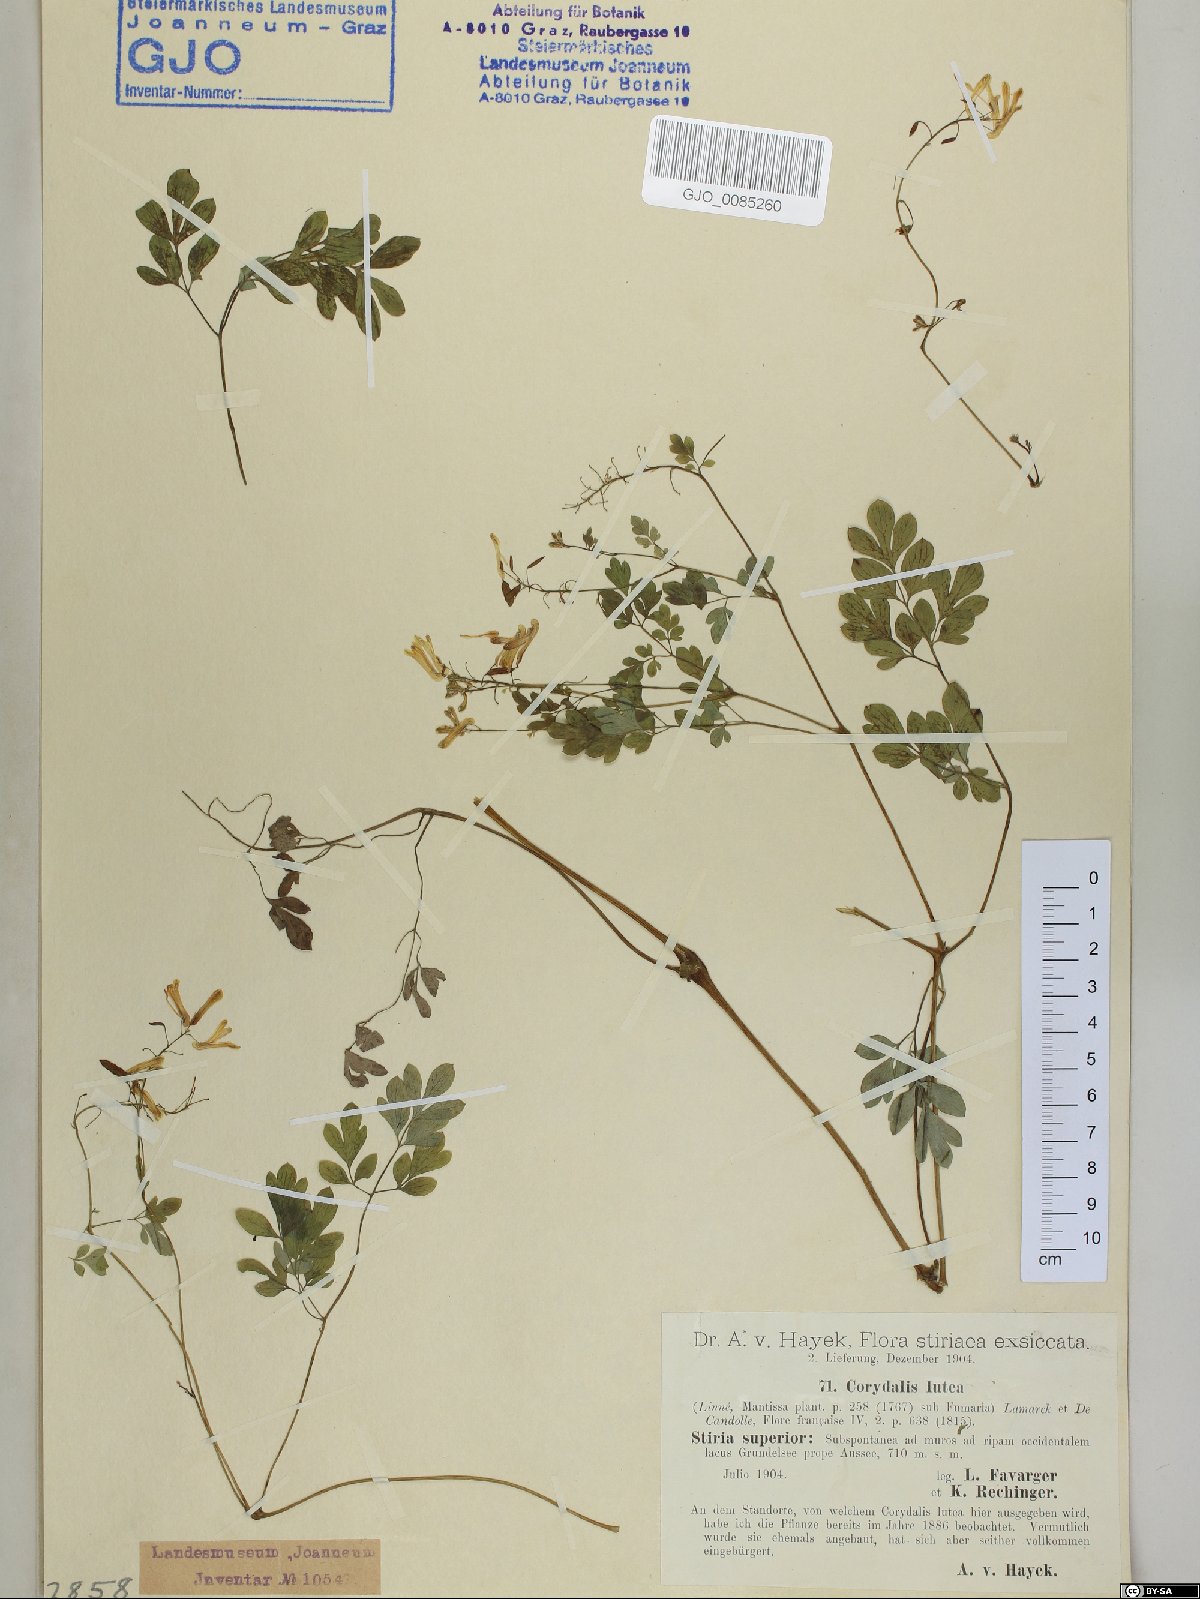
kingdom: Plantae
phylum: Tracheophyta
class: Magnoliopsida
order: Ranunculales
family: Papaveraceae
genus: Pseudofumaria
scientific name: Pseudofumaria lutea
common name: Yellow corydalis
